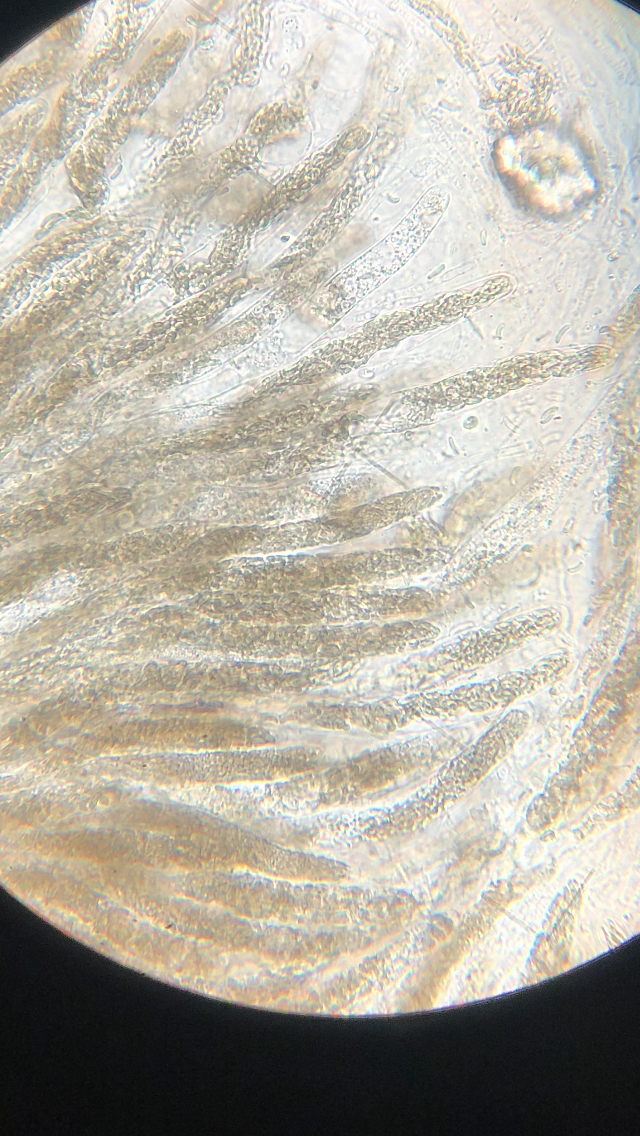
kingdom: Fungi
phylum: Ascomycota
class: Sordariomycetes
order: Xylariales
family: Diatrypaceae
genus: Diatrypella
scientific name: Diatrypella favacea
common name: klemt kulskorpe
